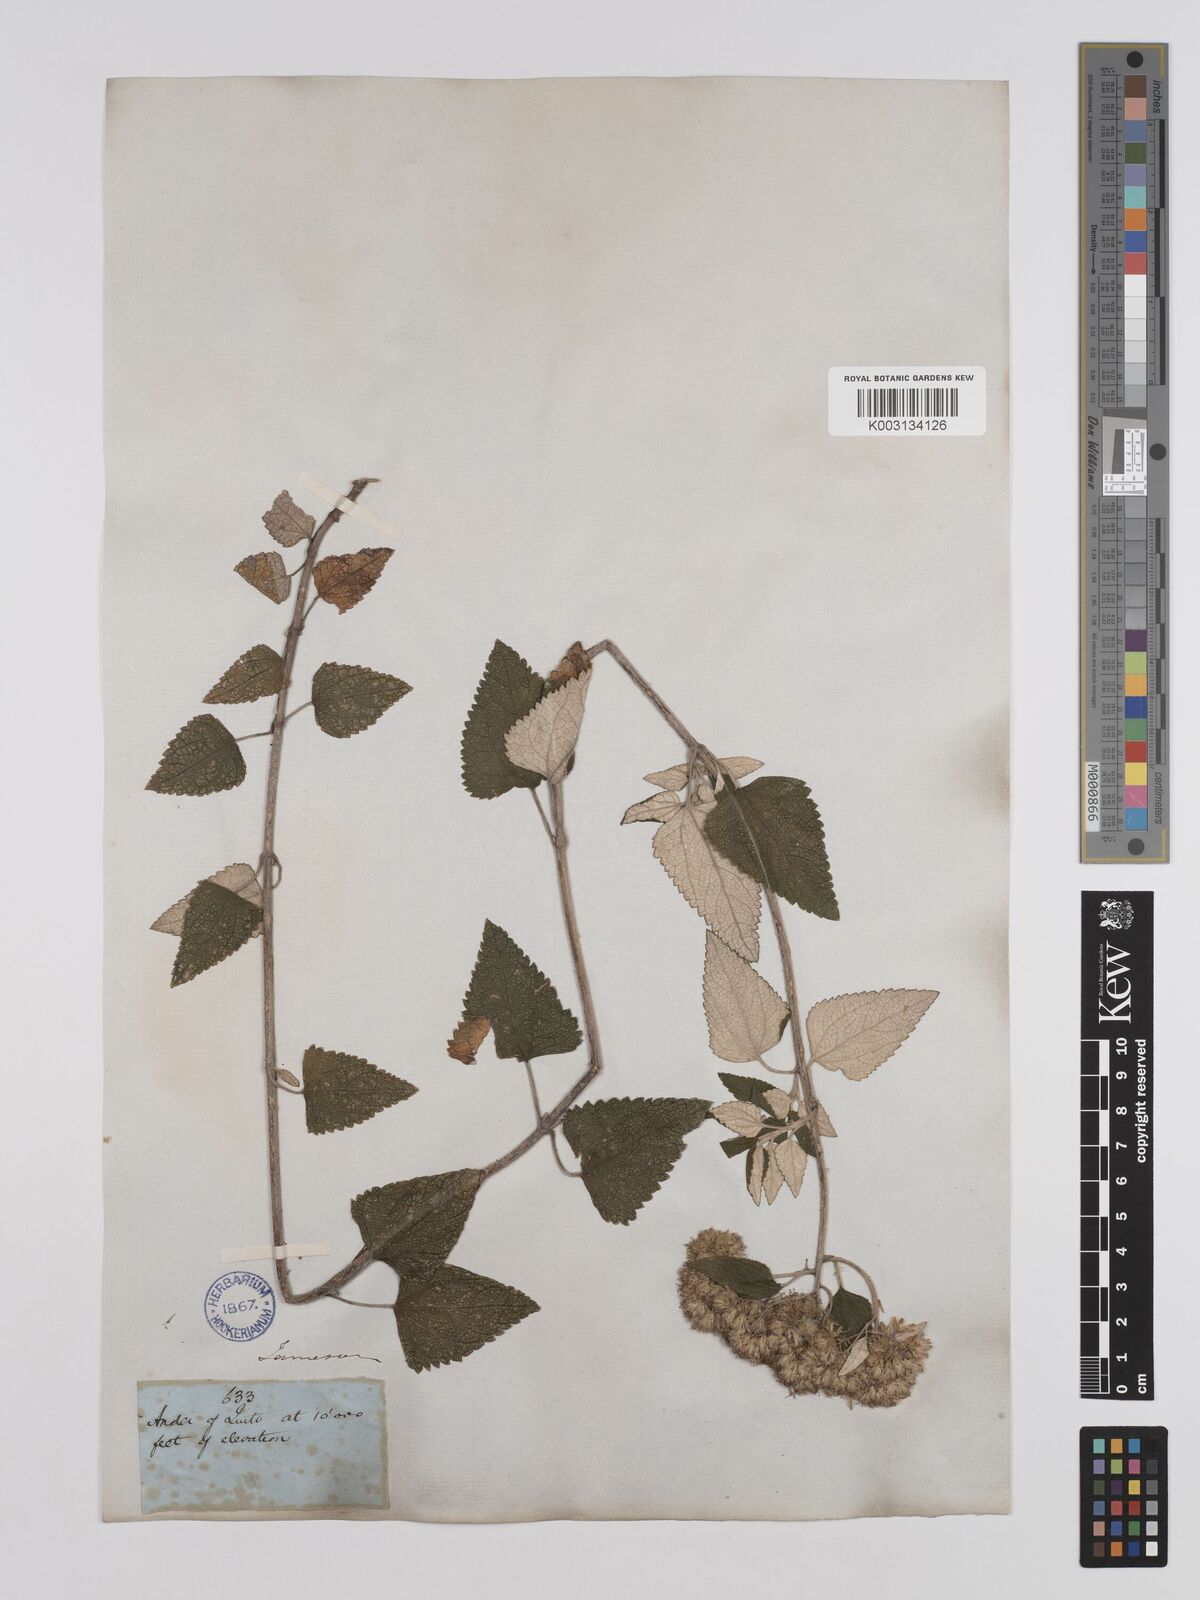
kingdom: Plantae
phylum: Tracheophyta
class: Magnoliopsida
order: Asterales
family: Asteraceae
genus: Cronquistianthus
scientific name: Cronquistianthus leucophyllus
